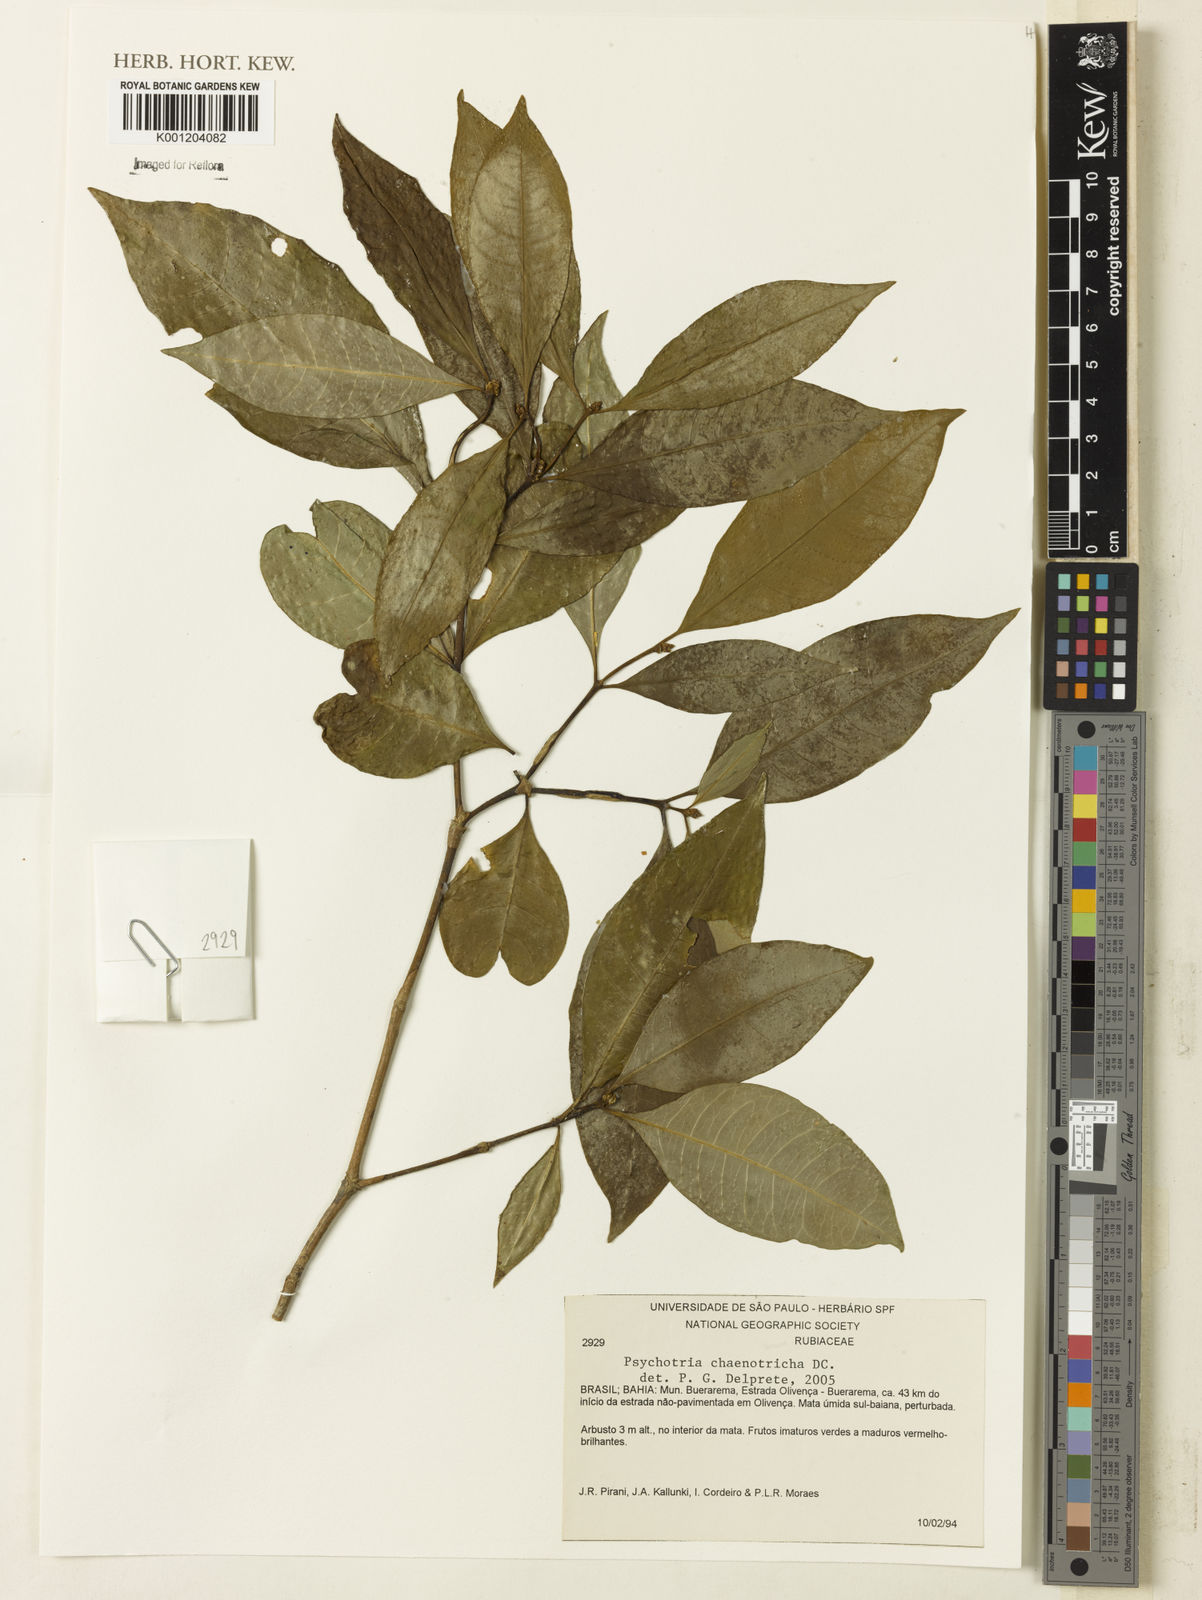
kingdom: Plantae
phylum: Tracheophyta
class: Magnoliopsida
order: Gentianales
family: Rubiaceae
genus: Eumachia
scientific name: Eumachia chaenotricha
